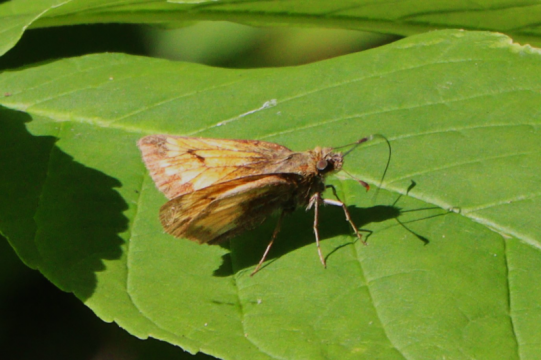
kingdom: Animalia
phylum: Arthropoda
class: Insecta
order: Lepidoptera
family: Hesperiidae
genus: Lon
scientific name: Lon hobomok
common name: Hobomok Skipper
